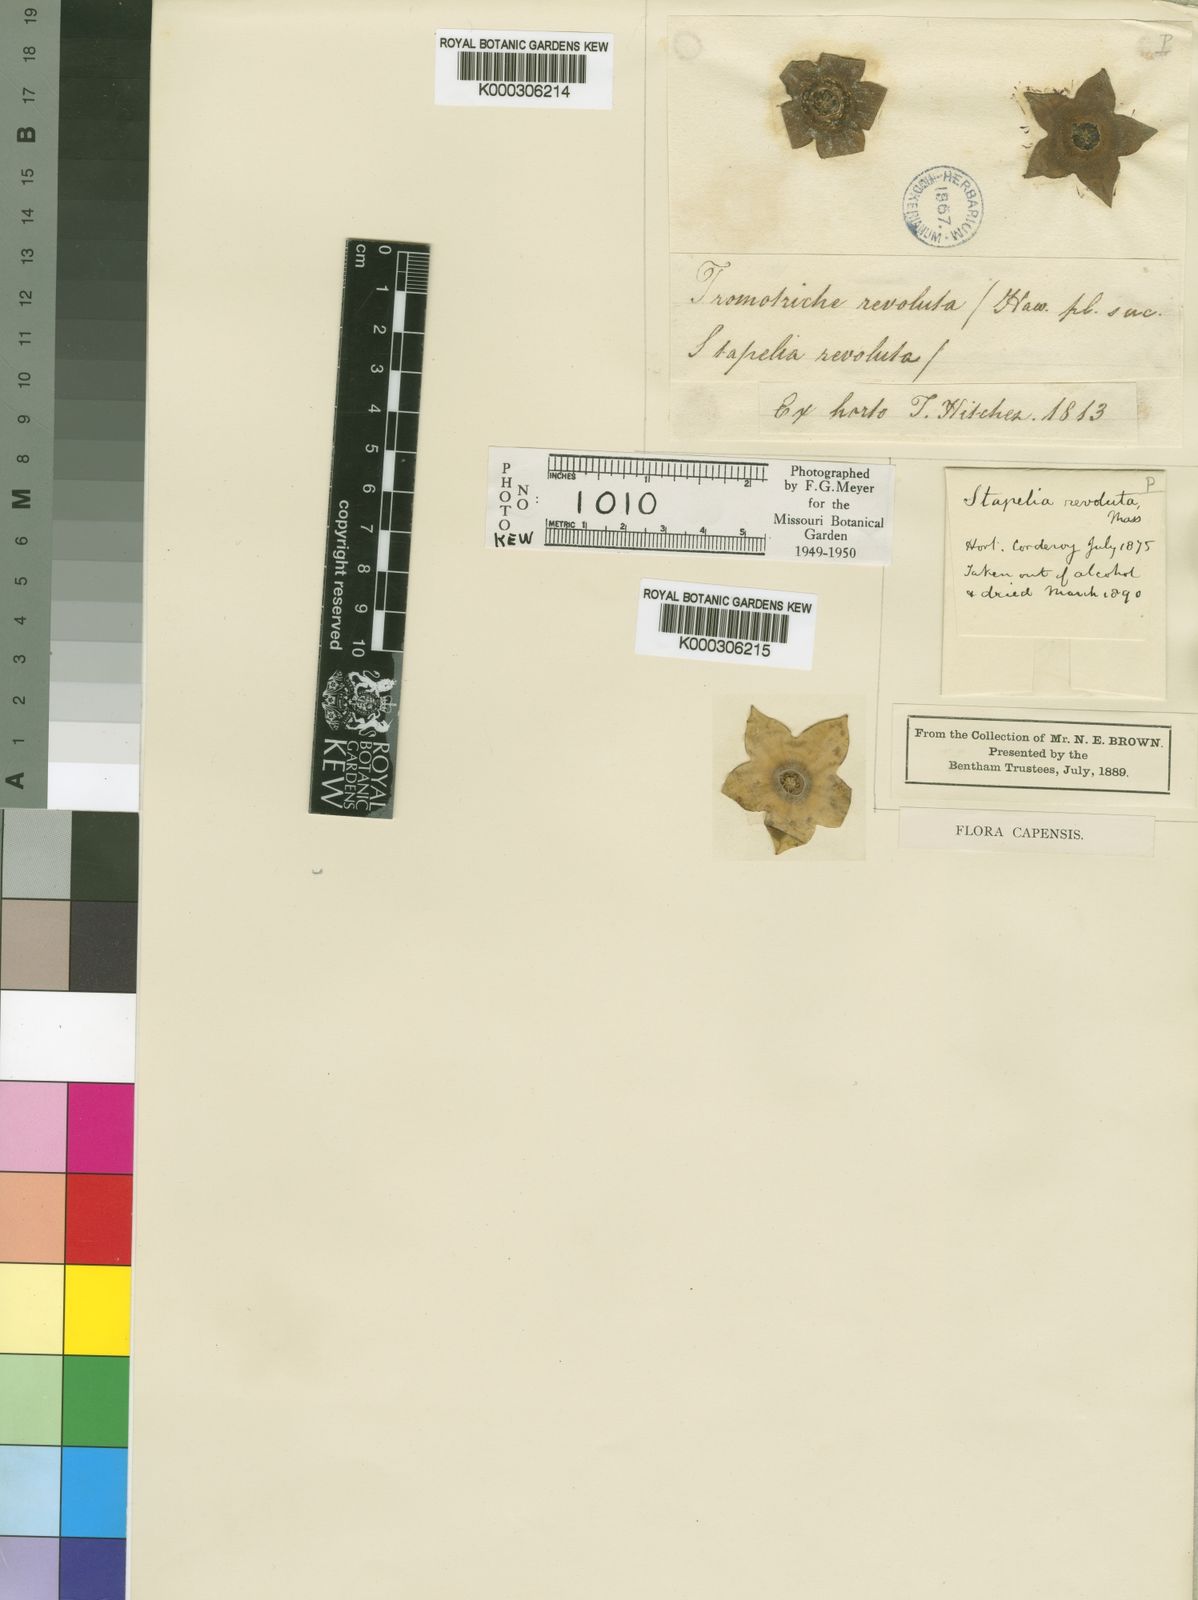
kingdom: Plantae
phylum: Tracheophyta
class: Magnoliopsida
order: Gentianales
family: Apocynaceae
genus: Ceropegia
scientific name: Ceropegia revoluta
